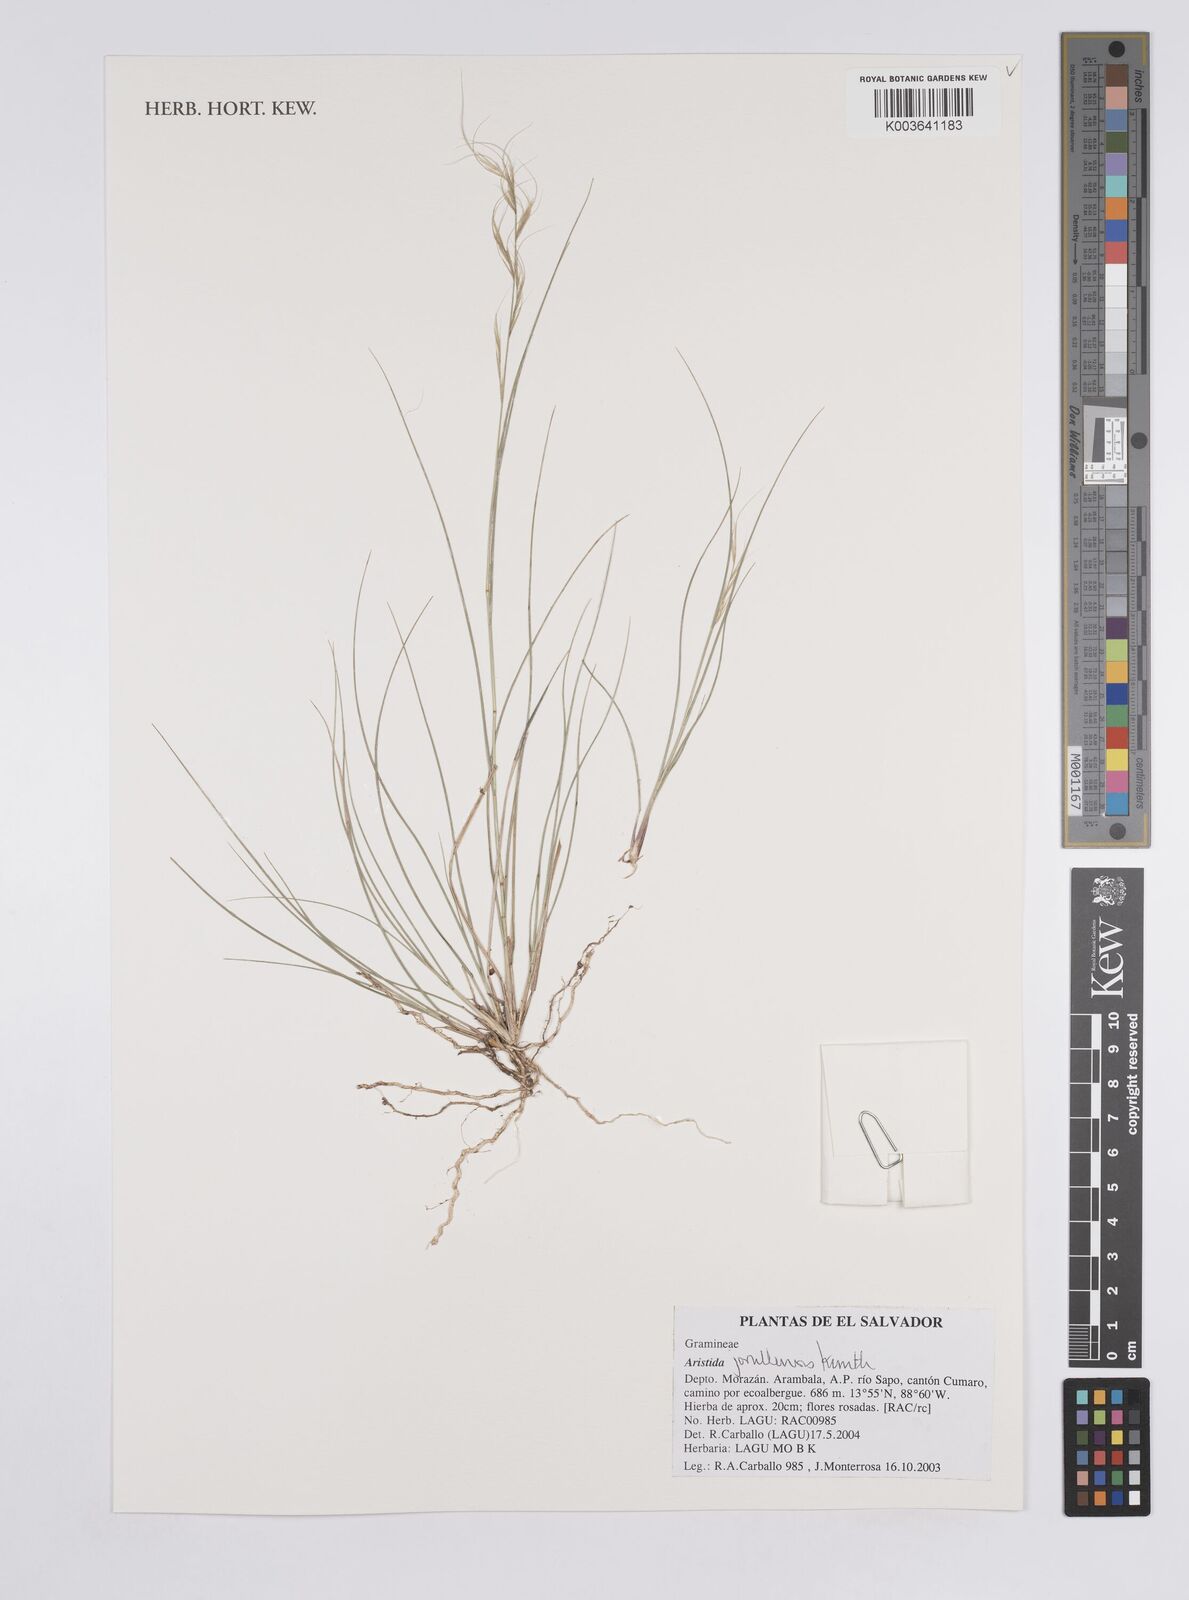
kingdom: Plantae
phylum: Tracheophyta
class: Liliopsida
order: Poales
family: Poaceae
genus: Aristida
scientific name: Aristida jorullensis
